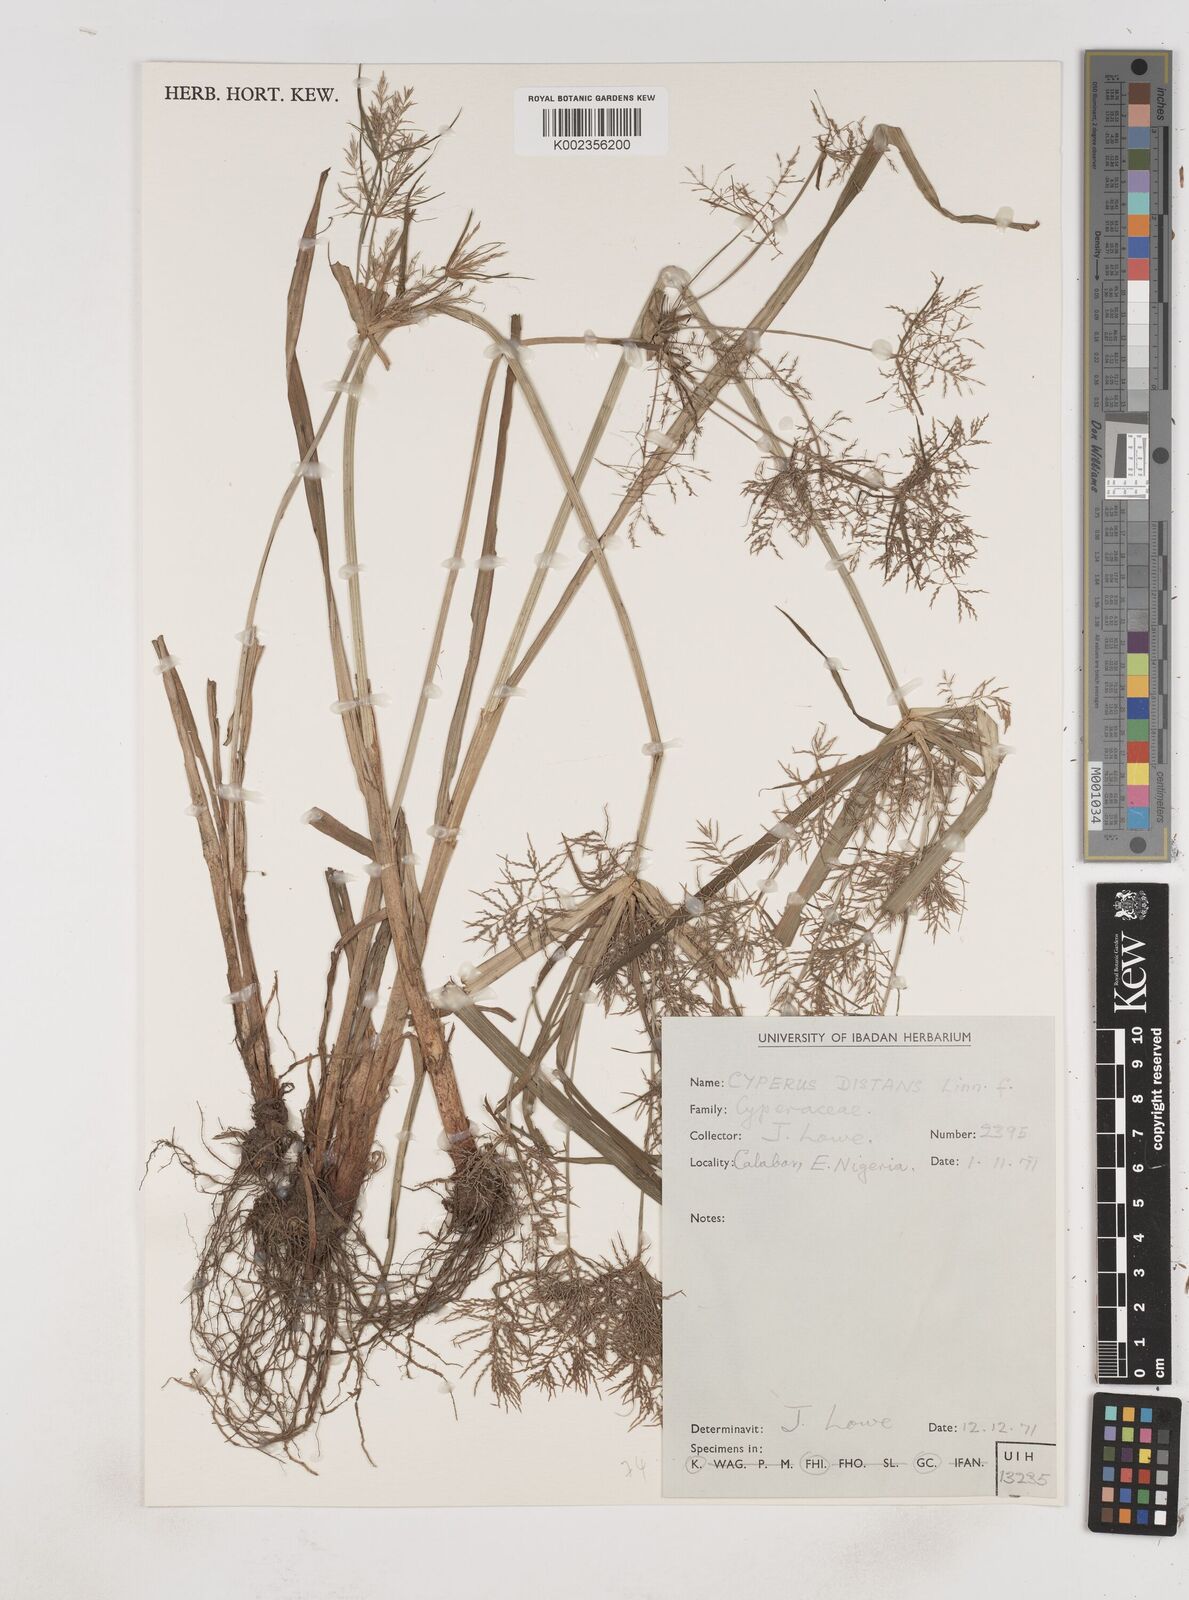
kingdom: Plantae
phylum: Tracheophyta
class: Liliopsida
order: Poales
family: Cyperaceae
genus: Cyperus
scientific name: Cyperus distans
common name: Slender cyperus
